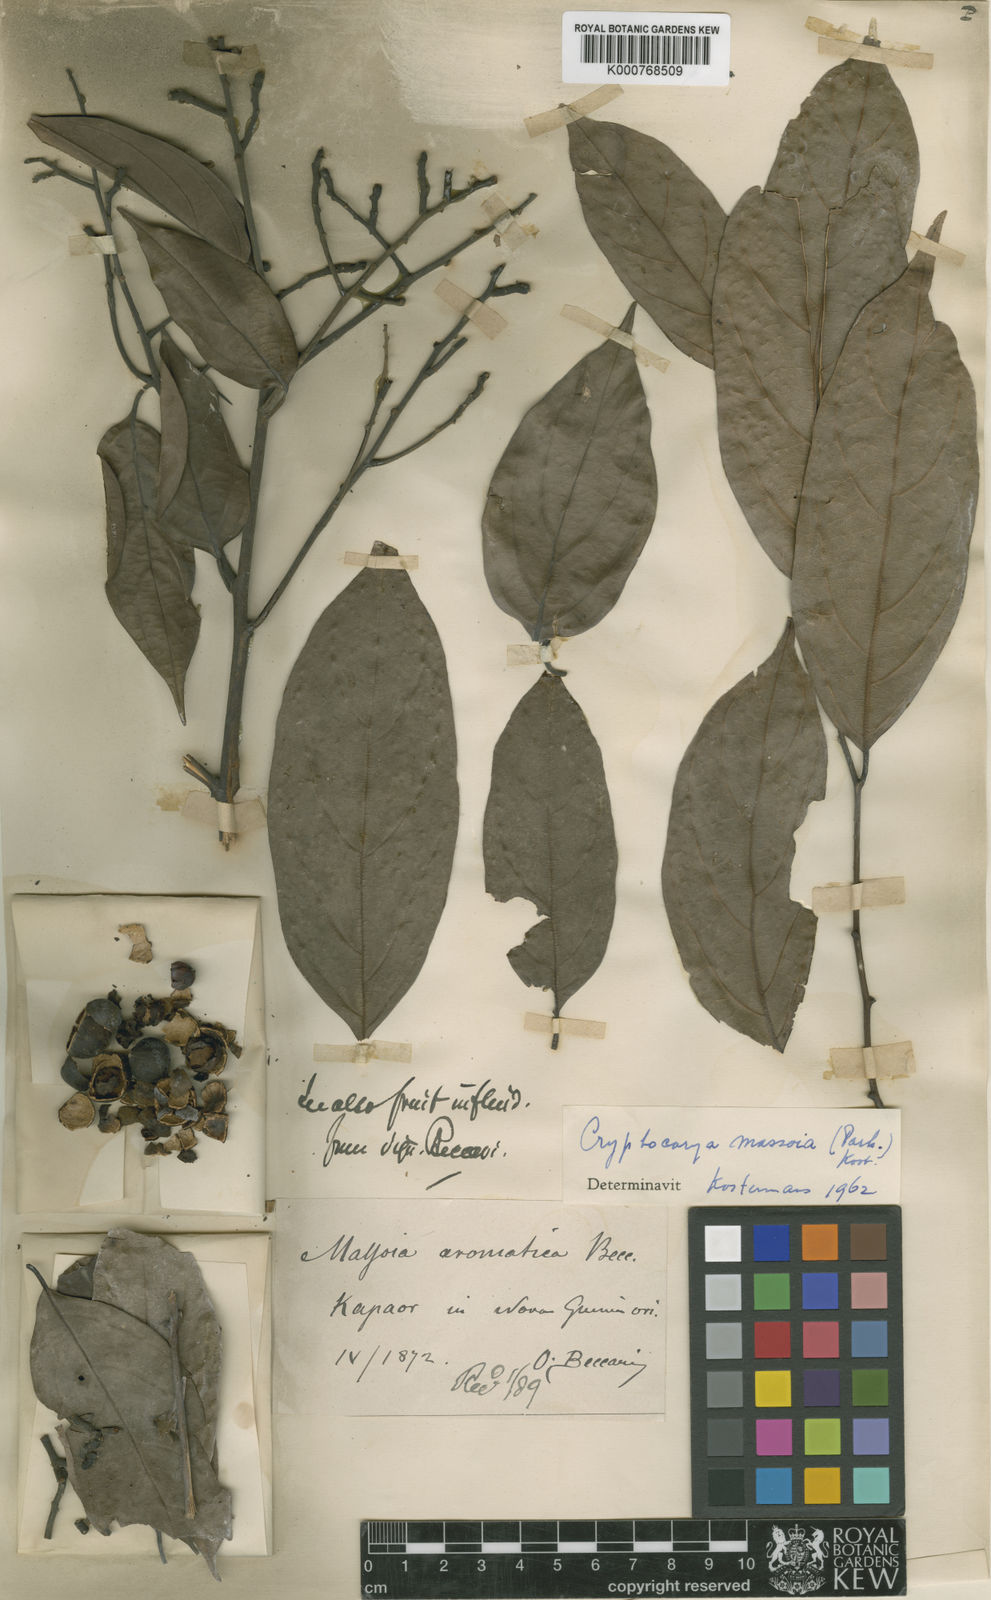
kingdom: Plantae
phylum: Tracheophyta
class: Magnoliopsida
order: Laurales
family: Lauraceae
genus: Cryptocarya
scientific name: Cryptocarya
